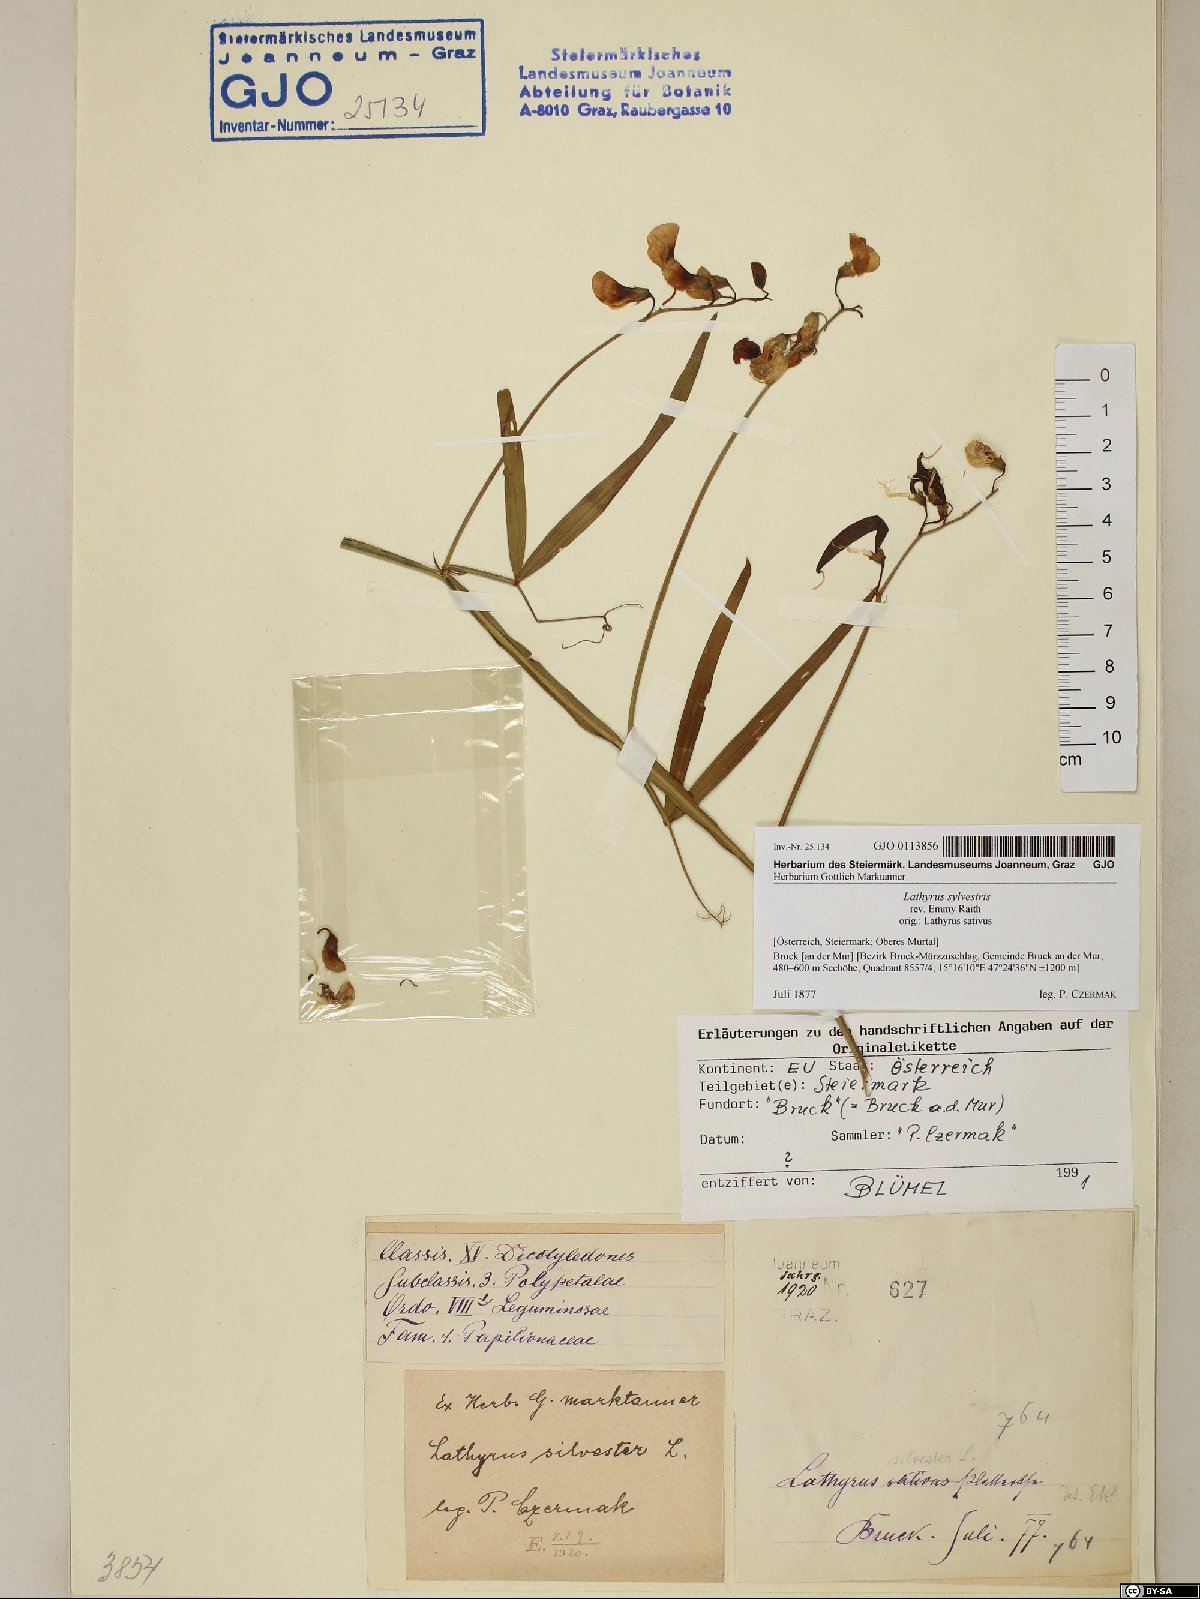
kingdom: Plantae
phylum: Tracheophyta
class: Magnoliopsida
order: Fabales
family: Fabaceae
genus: Lathyrus
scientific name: Lathyrus sylvestris
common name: Flat pea
